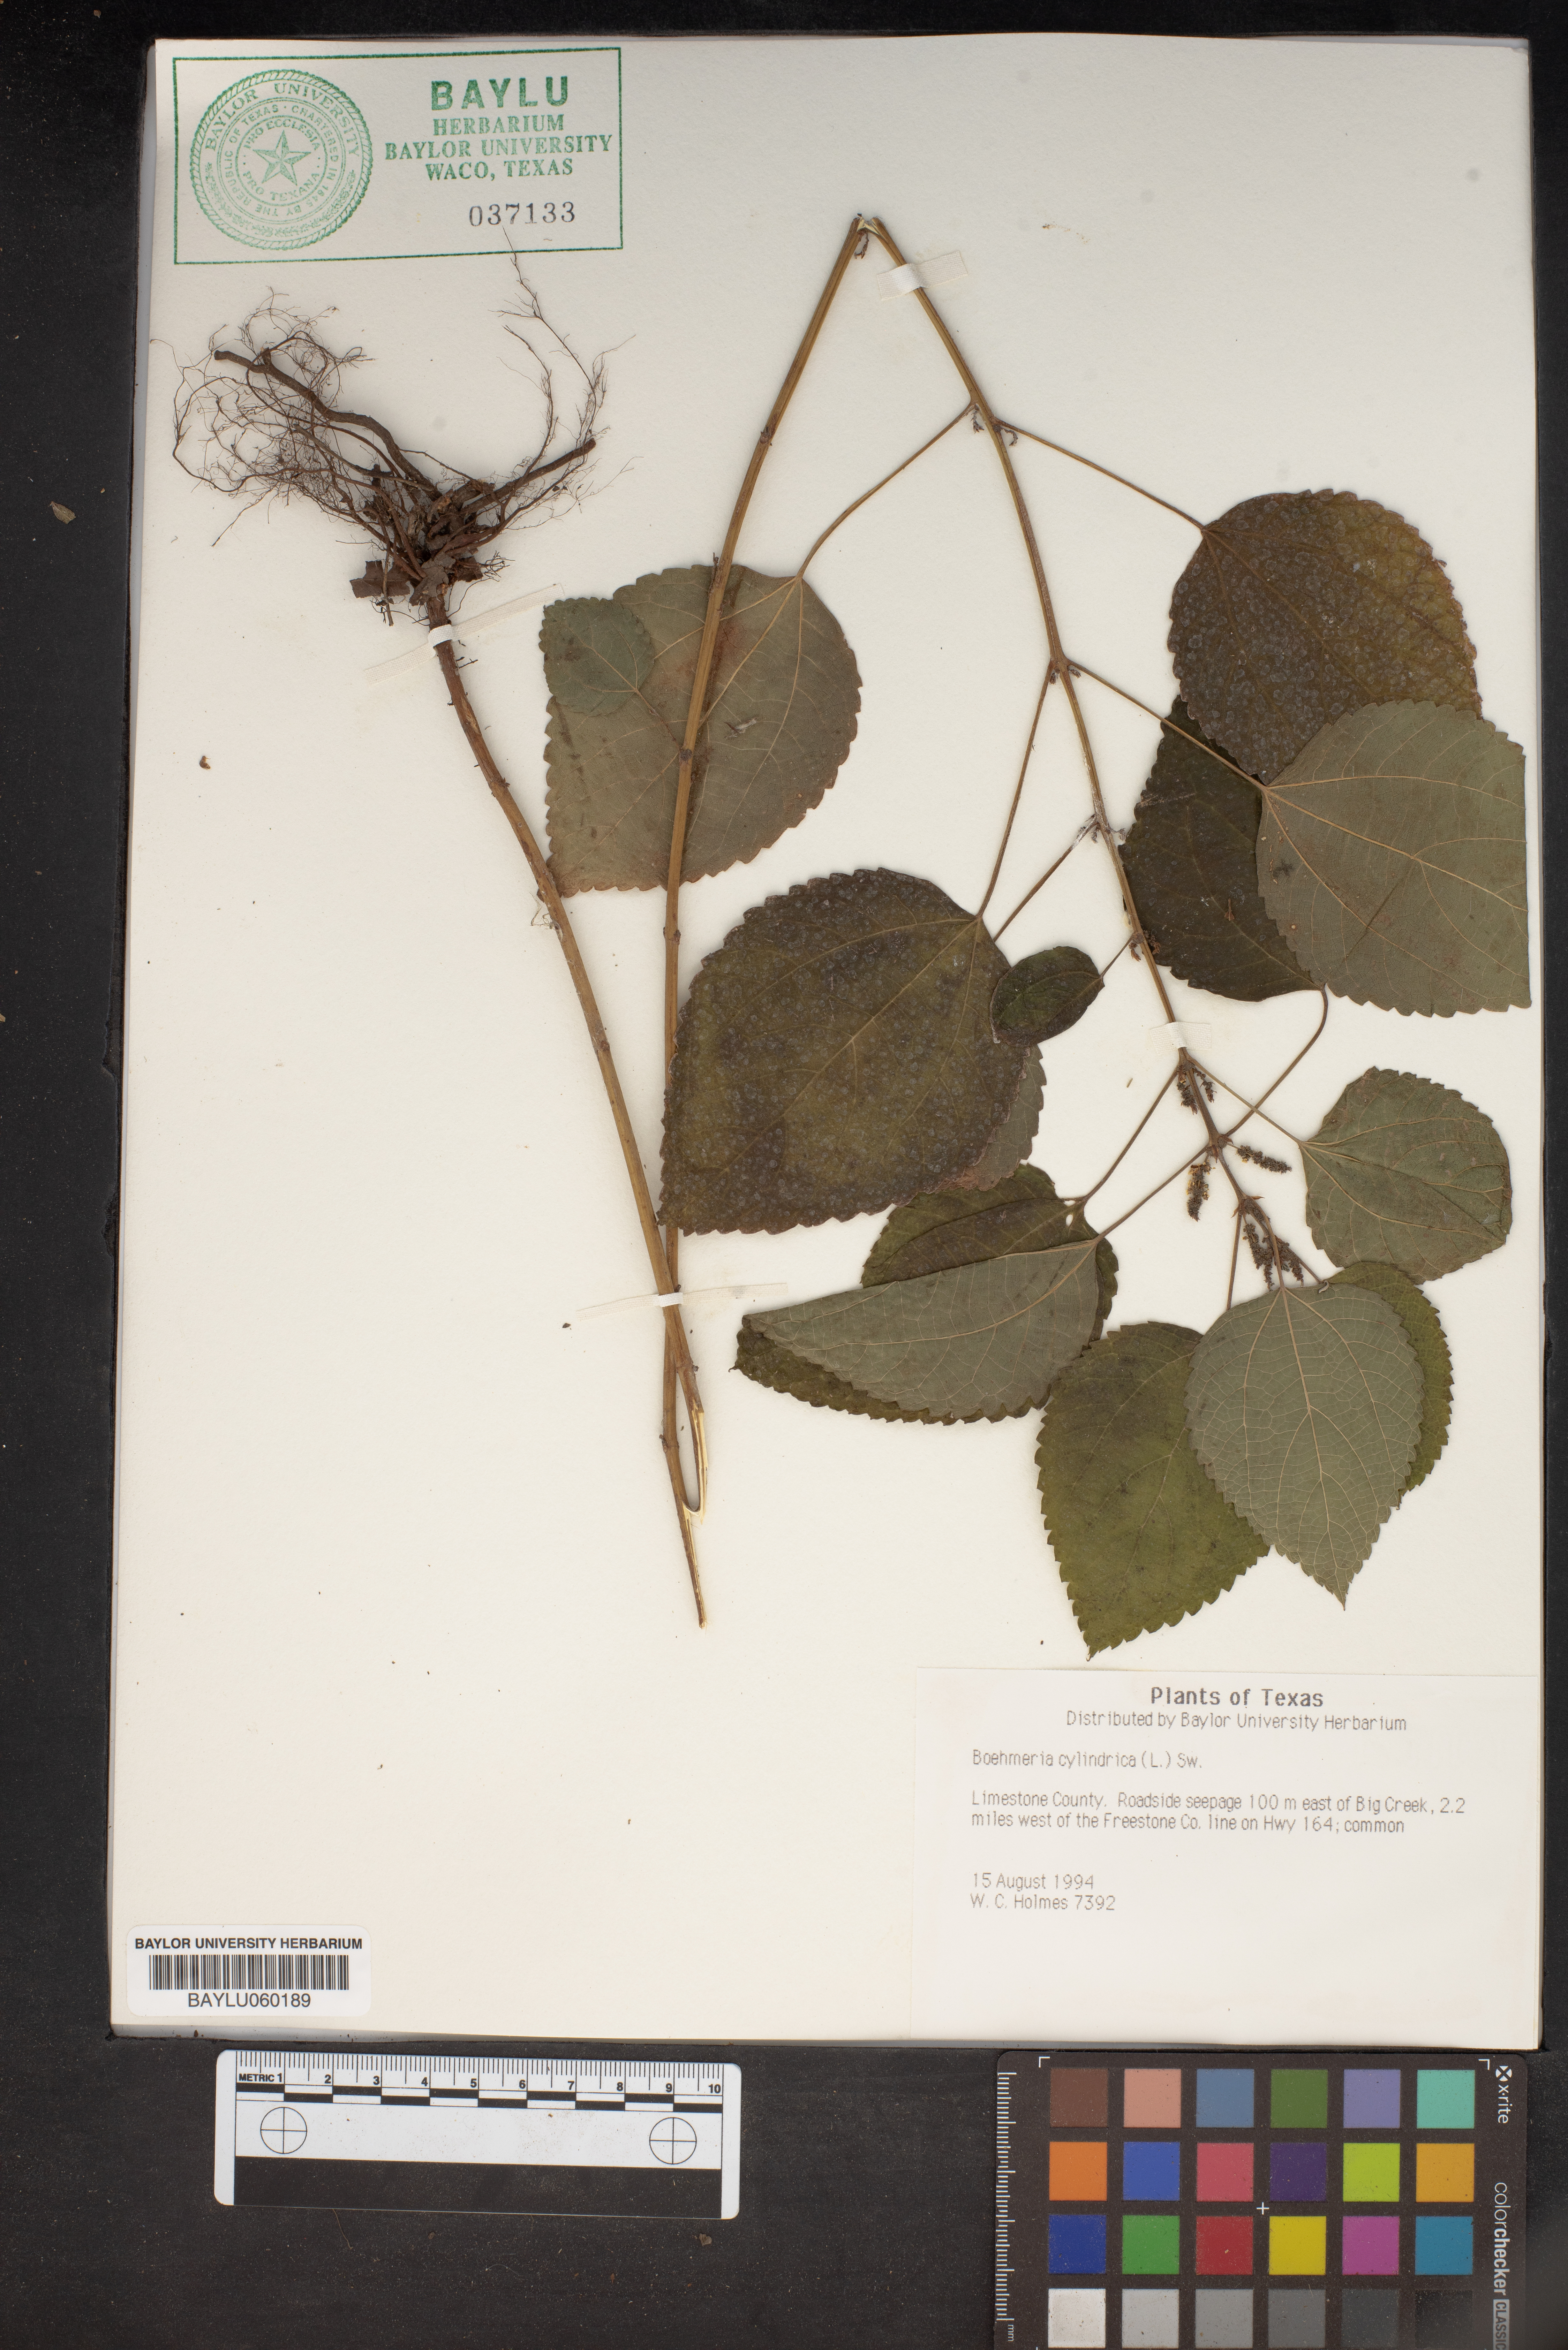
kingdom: Plantae
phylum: Tracheophyta
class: Magnoliopsida
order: Rosales
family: Urticaceae
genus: Boehmeria
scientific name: Boehmeria cylindrica
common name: Bog-hemp
